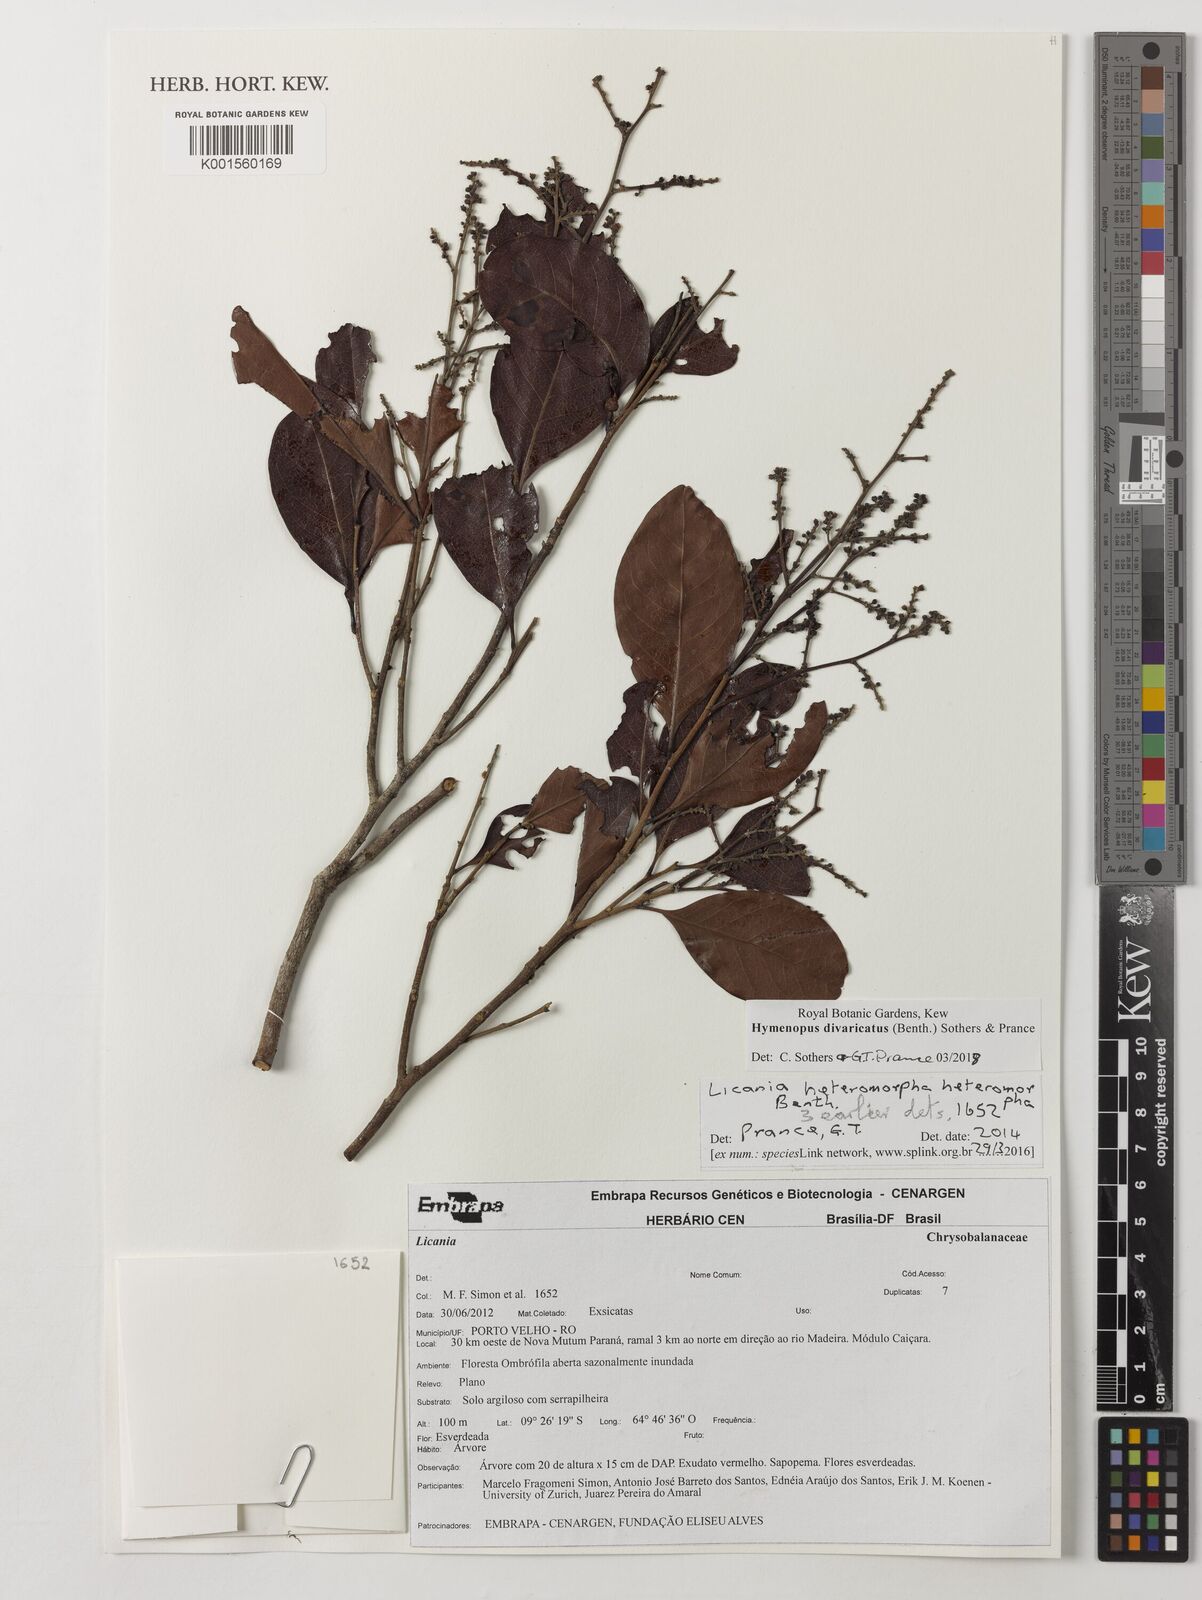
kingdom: Plantae
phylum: Tracheophyta
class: Magnoliopsida
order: Malpighiales
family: Chrysobalanaceae
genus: Hymenopus
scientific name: Hymenopus divaricatus
